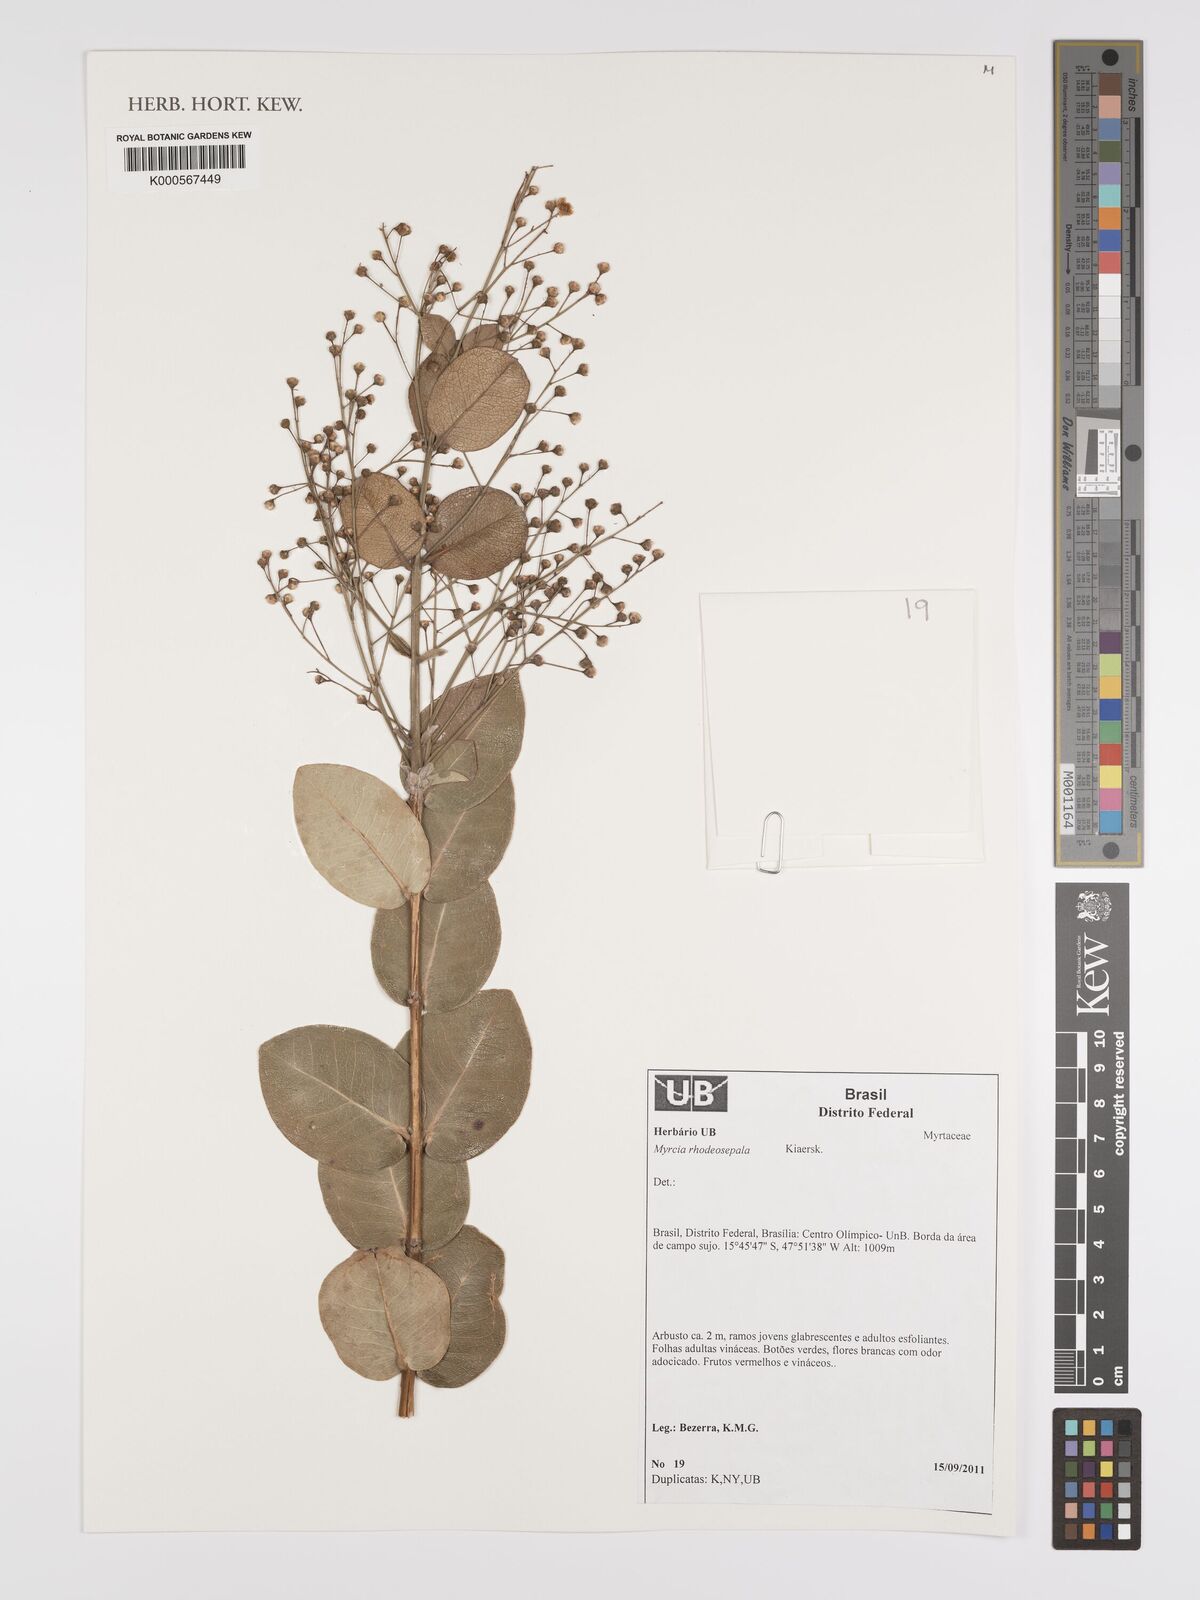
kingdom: Plantae
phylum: Tracheophyta
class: Magnoliopsida
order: Myrtales
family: Myrtaceae
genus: Myrcia
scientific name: Myrcia tomentosa
